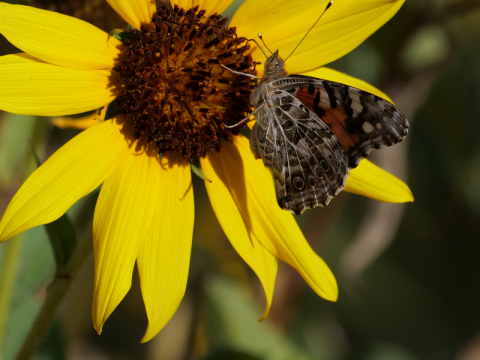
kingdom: Animalia
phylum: Arthropoda
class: Insecta
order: Lepidoptera
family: Nymphalidae
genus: Vanessa
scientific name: Vanessa cardui
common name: Painted Lady
